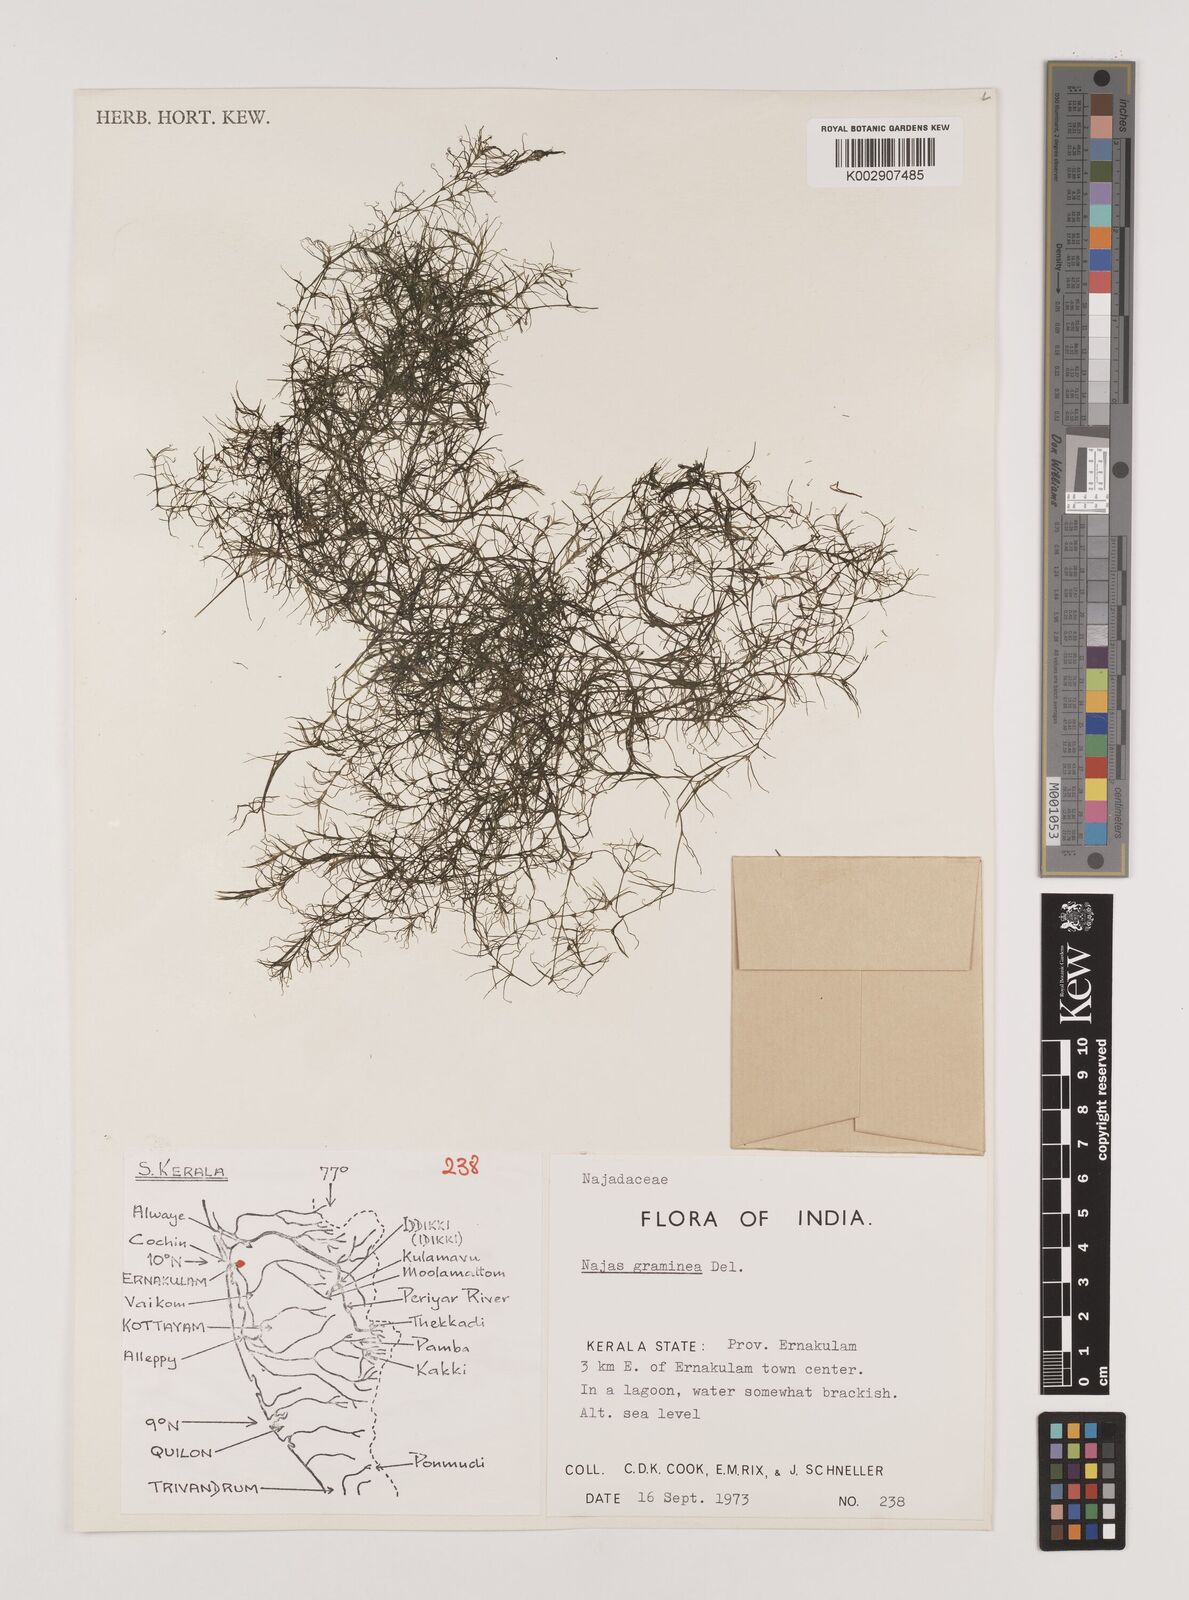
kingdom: Plantae
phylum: Tracheophyta
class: Liliopsida
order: Alismatales
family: Hydrocharitaceae
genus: Najas
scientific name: Najas graminea
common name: Ricefield waternymph
